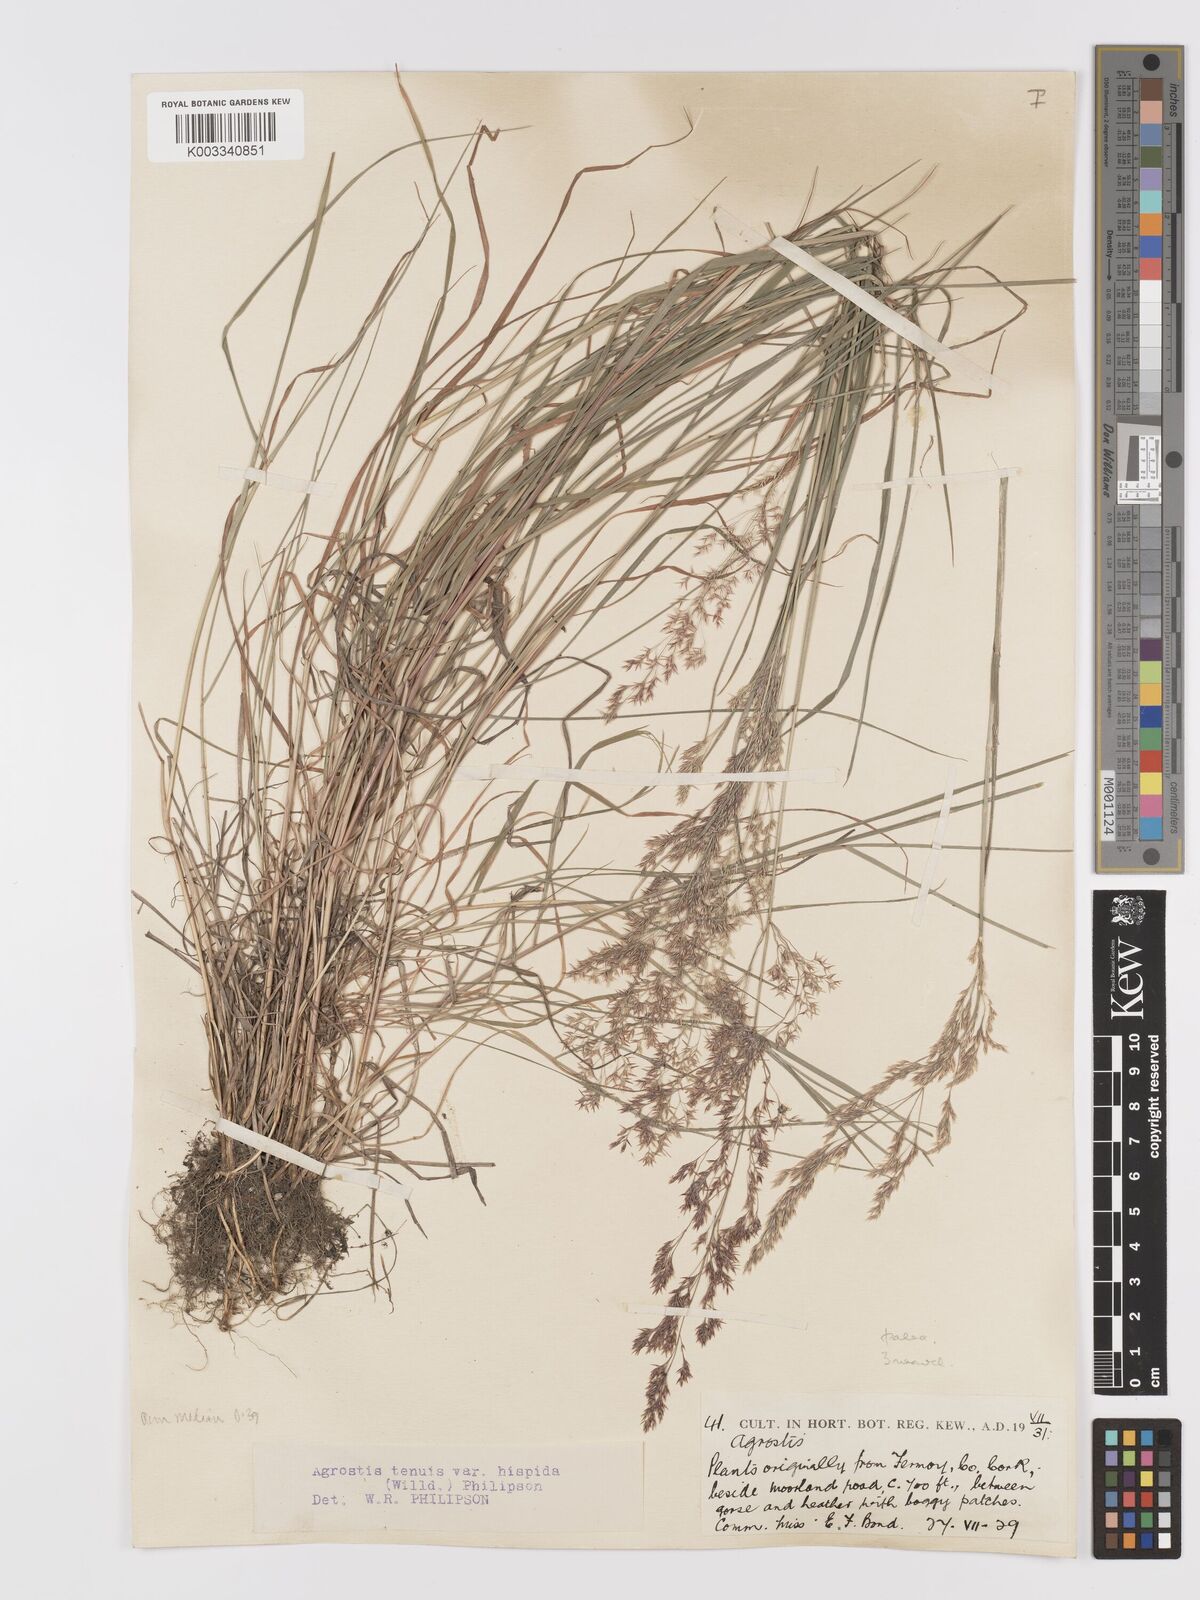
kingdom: Plantae
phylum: Tracheophyta
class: Liliopsida
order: Poales
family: Poaceae
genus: Agrostis
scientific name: Agrostis capillaris
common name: Colonial bentgrass
